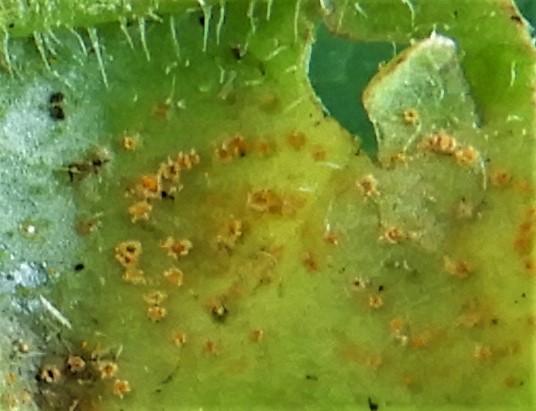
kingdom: Fungi
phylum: Basidiomycota
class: Pucciniomycetes
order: Pucciniales
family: Pucciniaceae
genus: Puccinia
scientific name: Puccinia obscura
